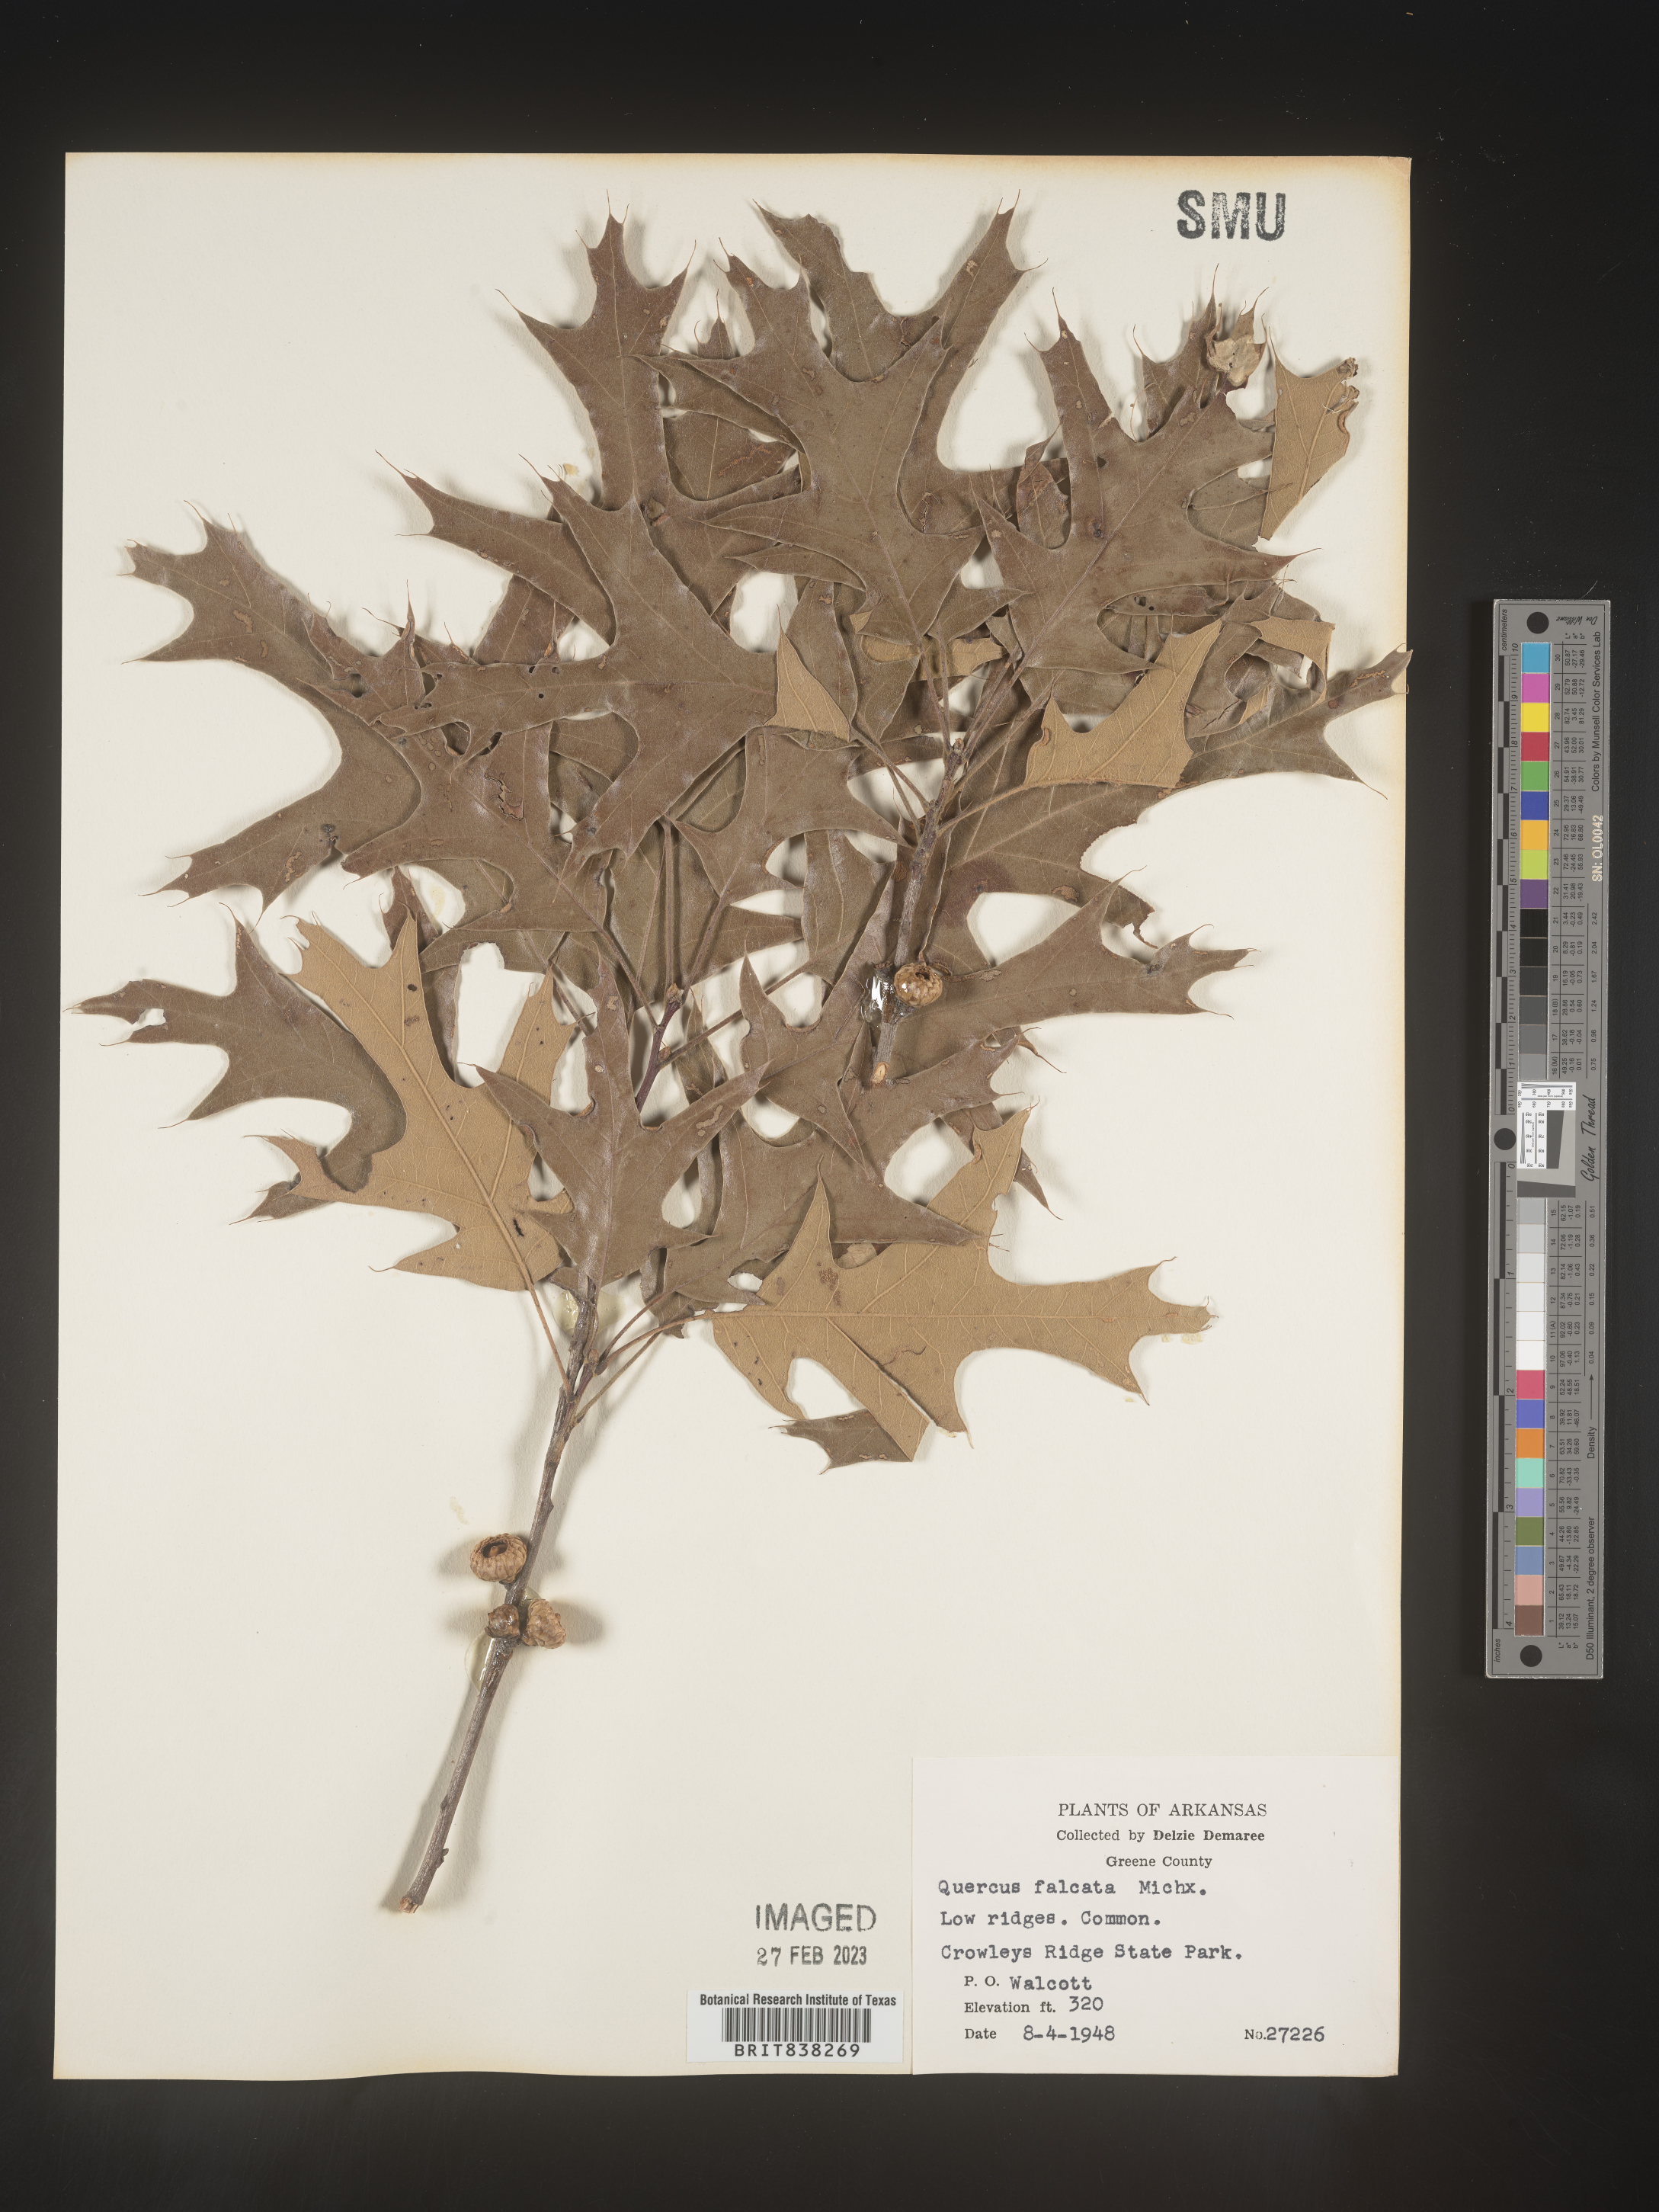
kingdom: Plantae
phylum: Tracheophyta
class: Magnoliopsida
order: Fagales
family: Fagaceae
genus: Quercus
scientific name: Quercus falcata
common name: Southern red oak
